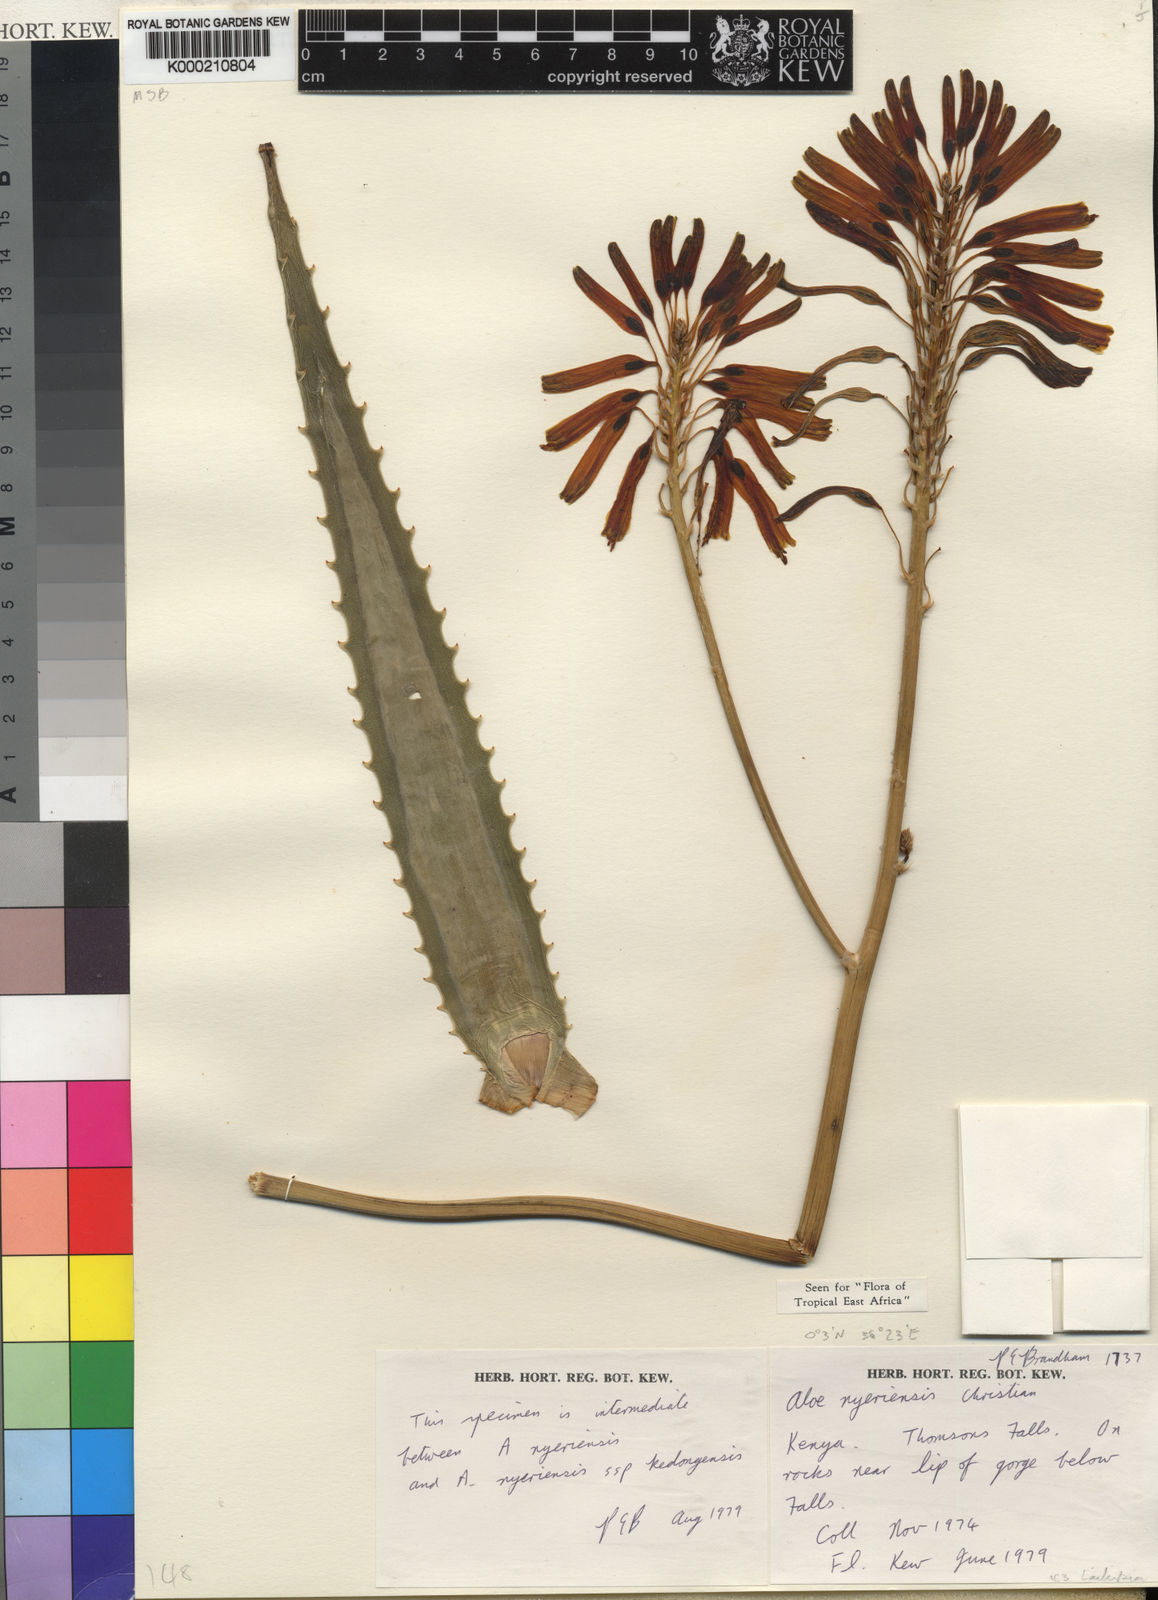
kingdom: Plantae
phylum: Tracheophyta
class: Liliopsida
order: Asparagales
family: Asphodelaceae
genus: Aloe
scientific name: Aloe nyeriensis
